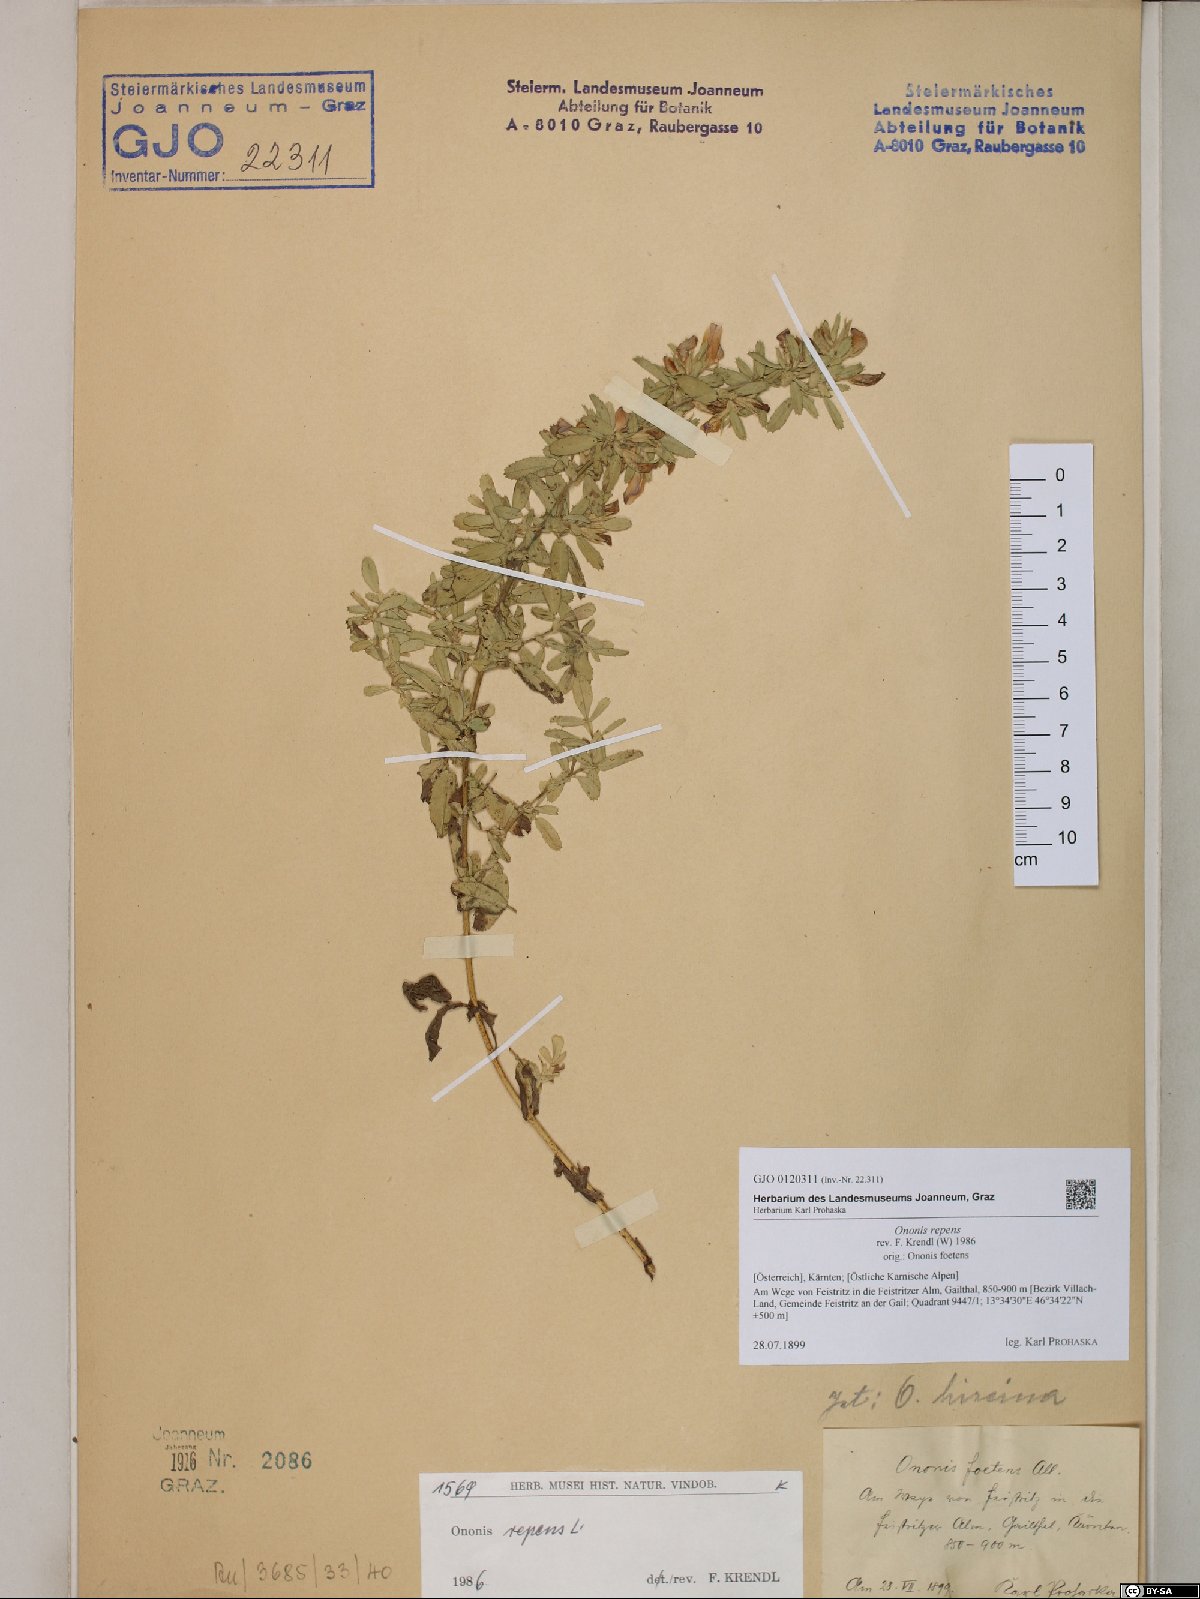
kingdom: Plantae
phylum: Tracheophyta
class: Magnoliopsida
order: Fabales
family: Fabaceae
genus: Ononis
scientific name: Ononis spinosa
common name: Spiny restharrow
